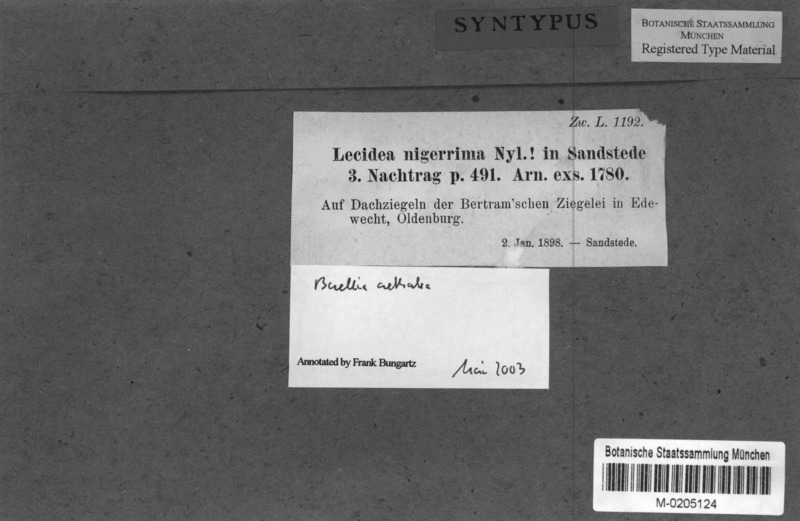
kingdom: Fungi
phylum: Ascomycota
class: Lecanoromycetes
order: Caliciales
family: Caliciaceae
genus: Buellia
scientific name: Buellia aethalea
